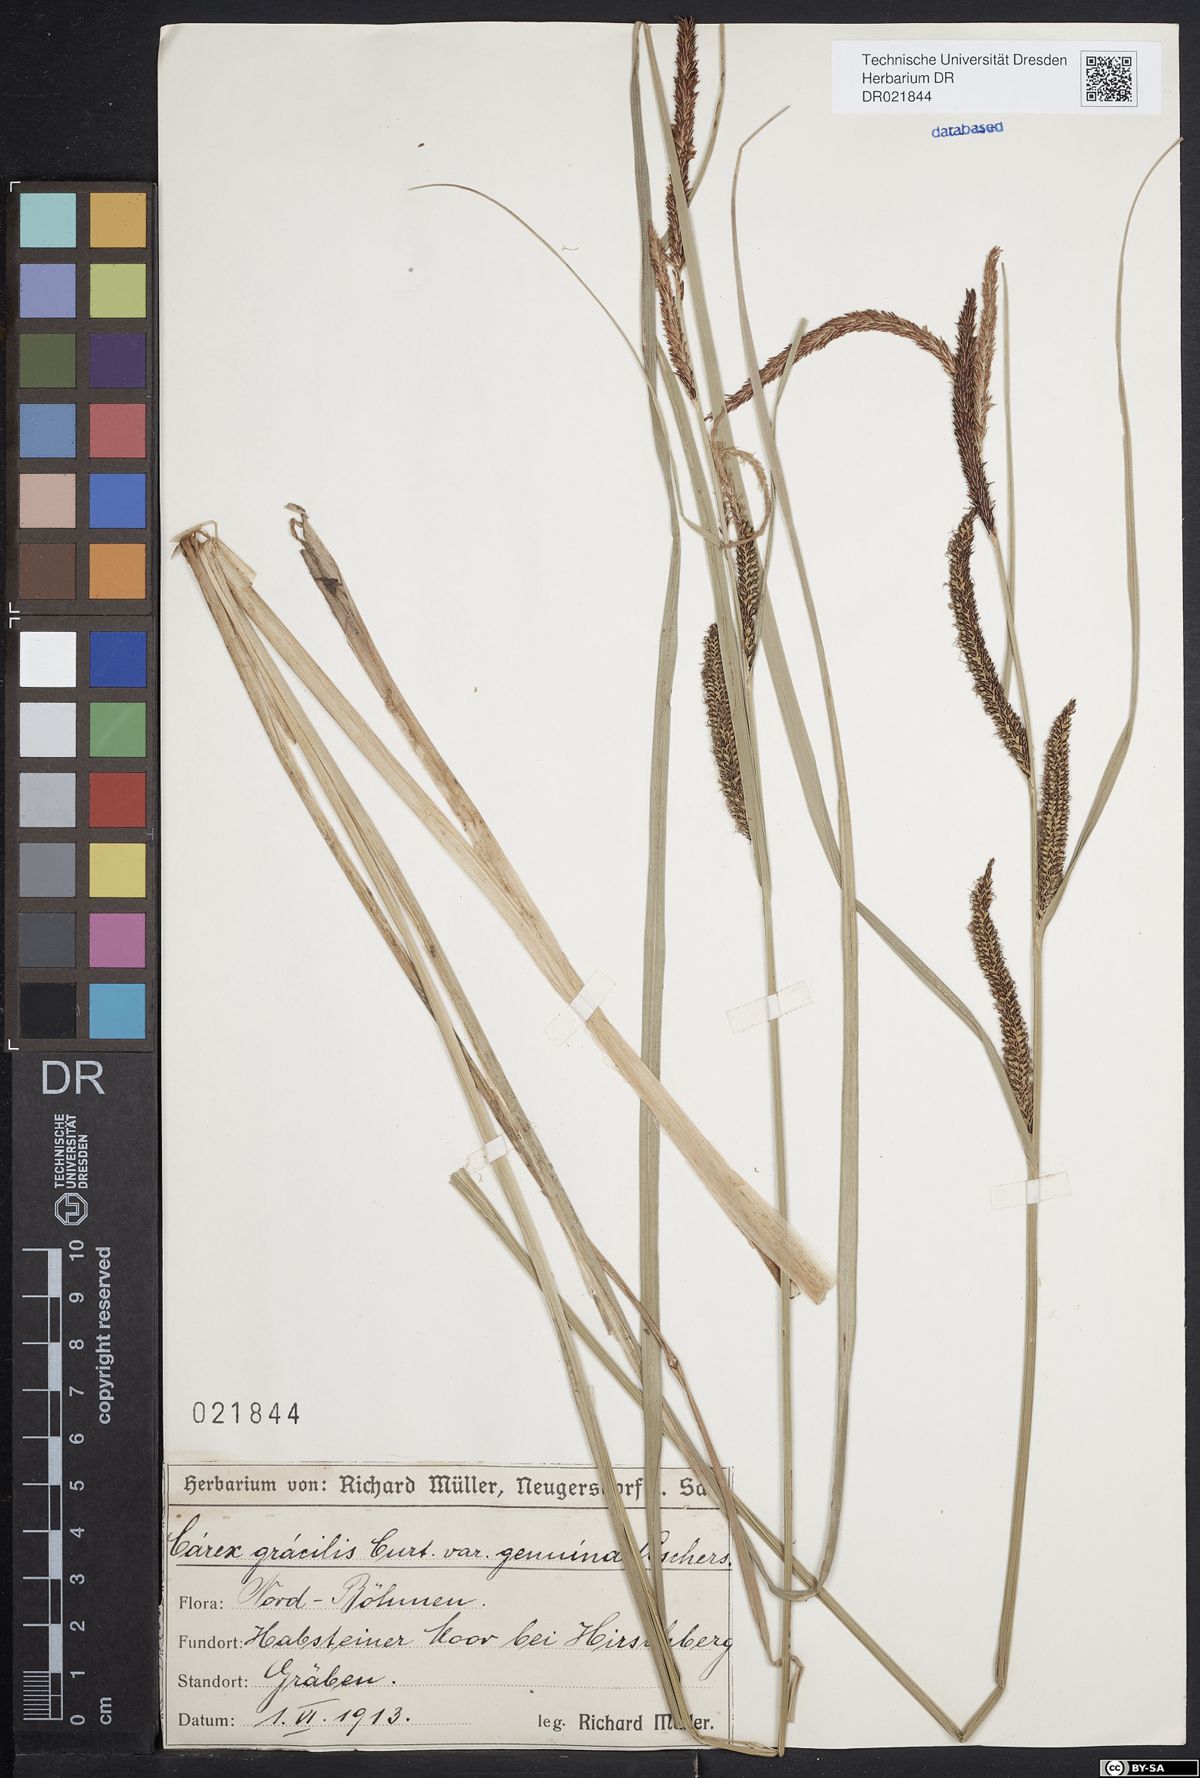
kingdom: Plantae
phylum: Tracheophyta
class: Liliopsida
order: Poales
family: Cyperaceae
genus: Carex
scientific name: Carex acuta
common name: Slender tufted-sedge
